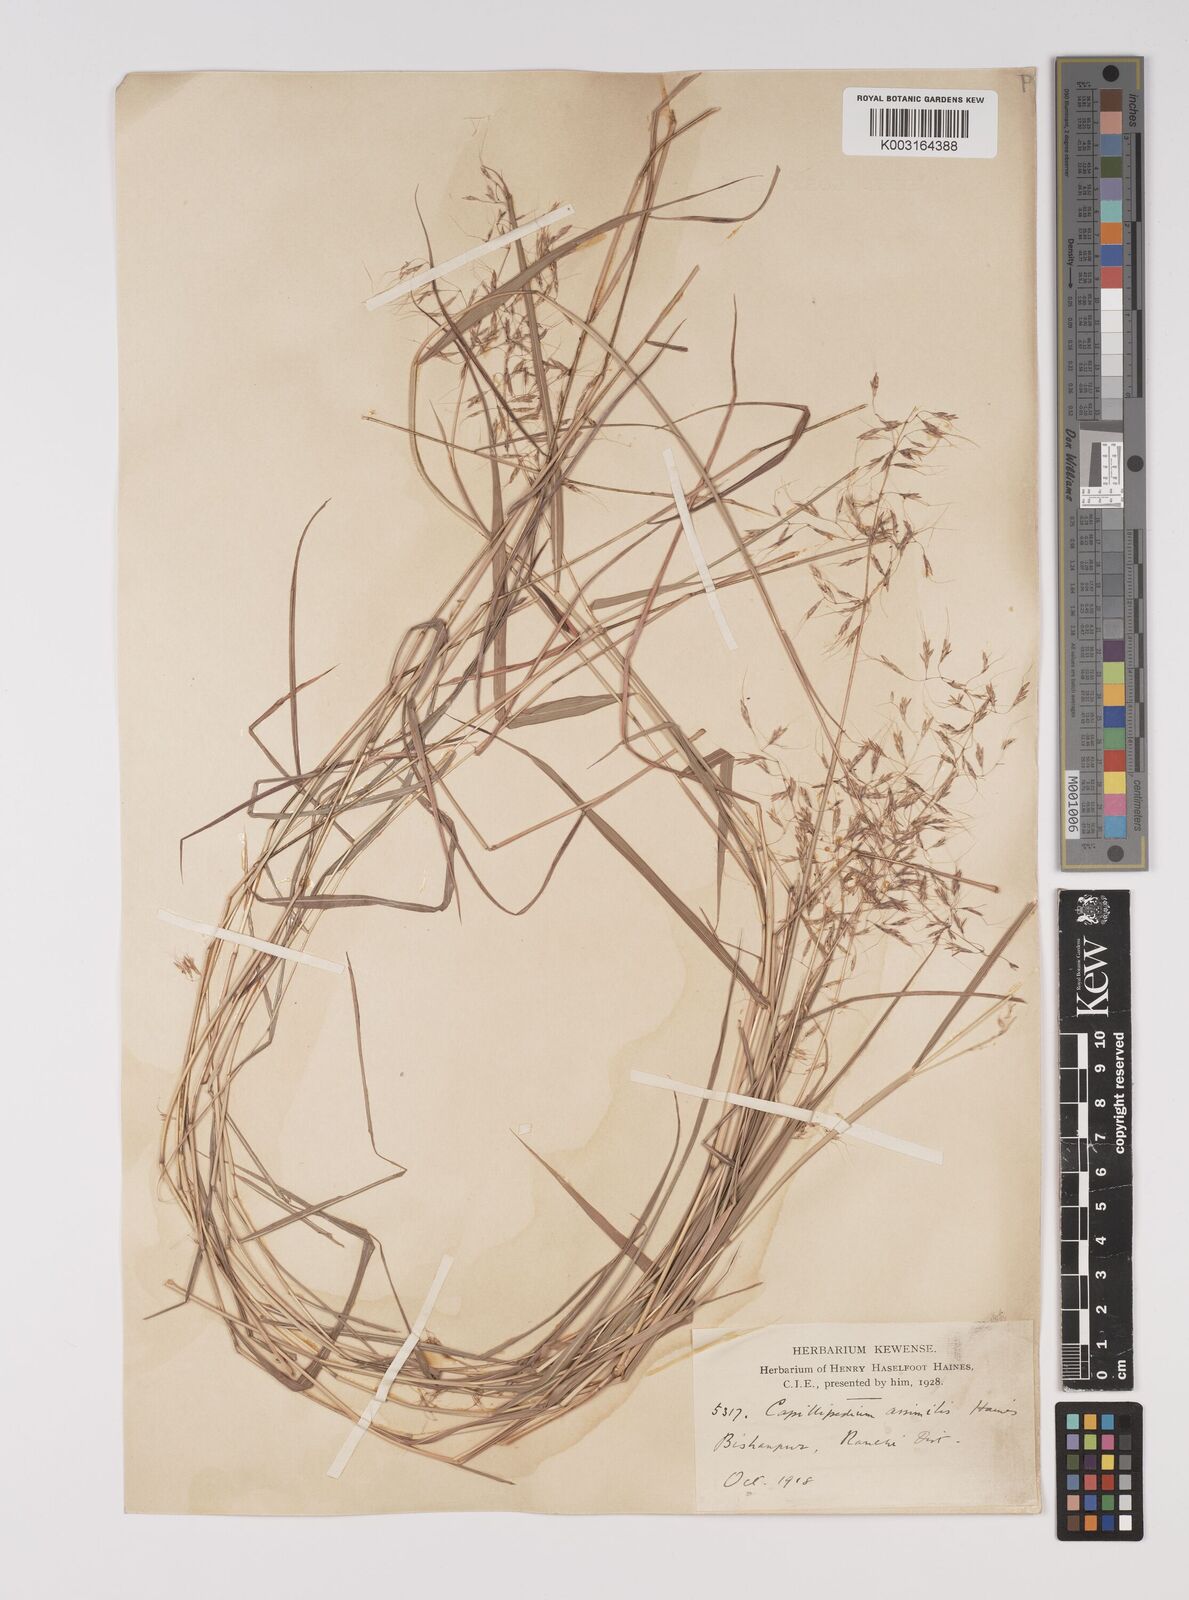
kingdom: Plantae
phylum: Tracheophyta
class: Liliopsida
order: Poales
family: Poaceae
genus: Capillipedium
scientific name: Capillipedium assimile
